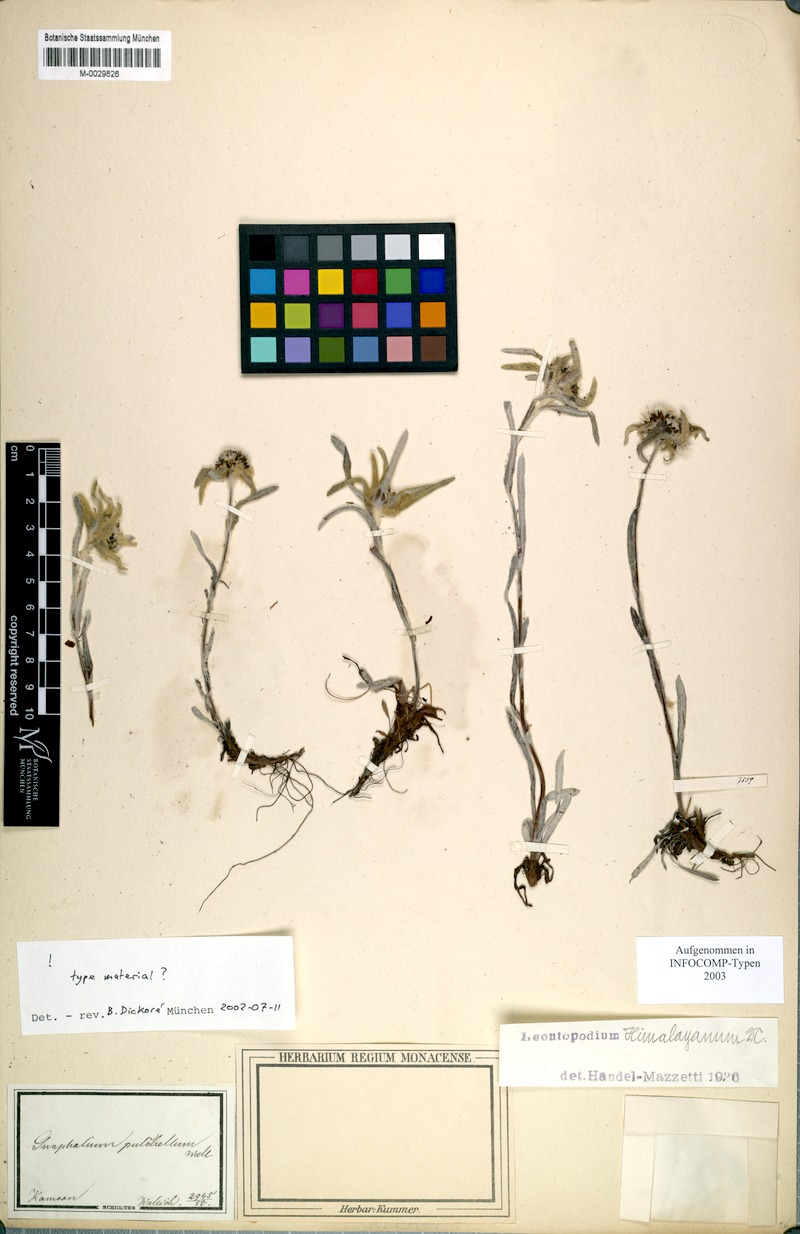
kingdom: Plantae
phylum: Tracheophyta
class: Magnoliopsida
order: Asterales
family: Asteraceae
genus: Leontopodium
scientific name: Leontopodium himalayanum
